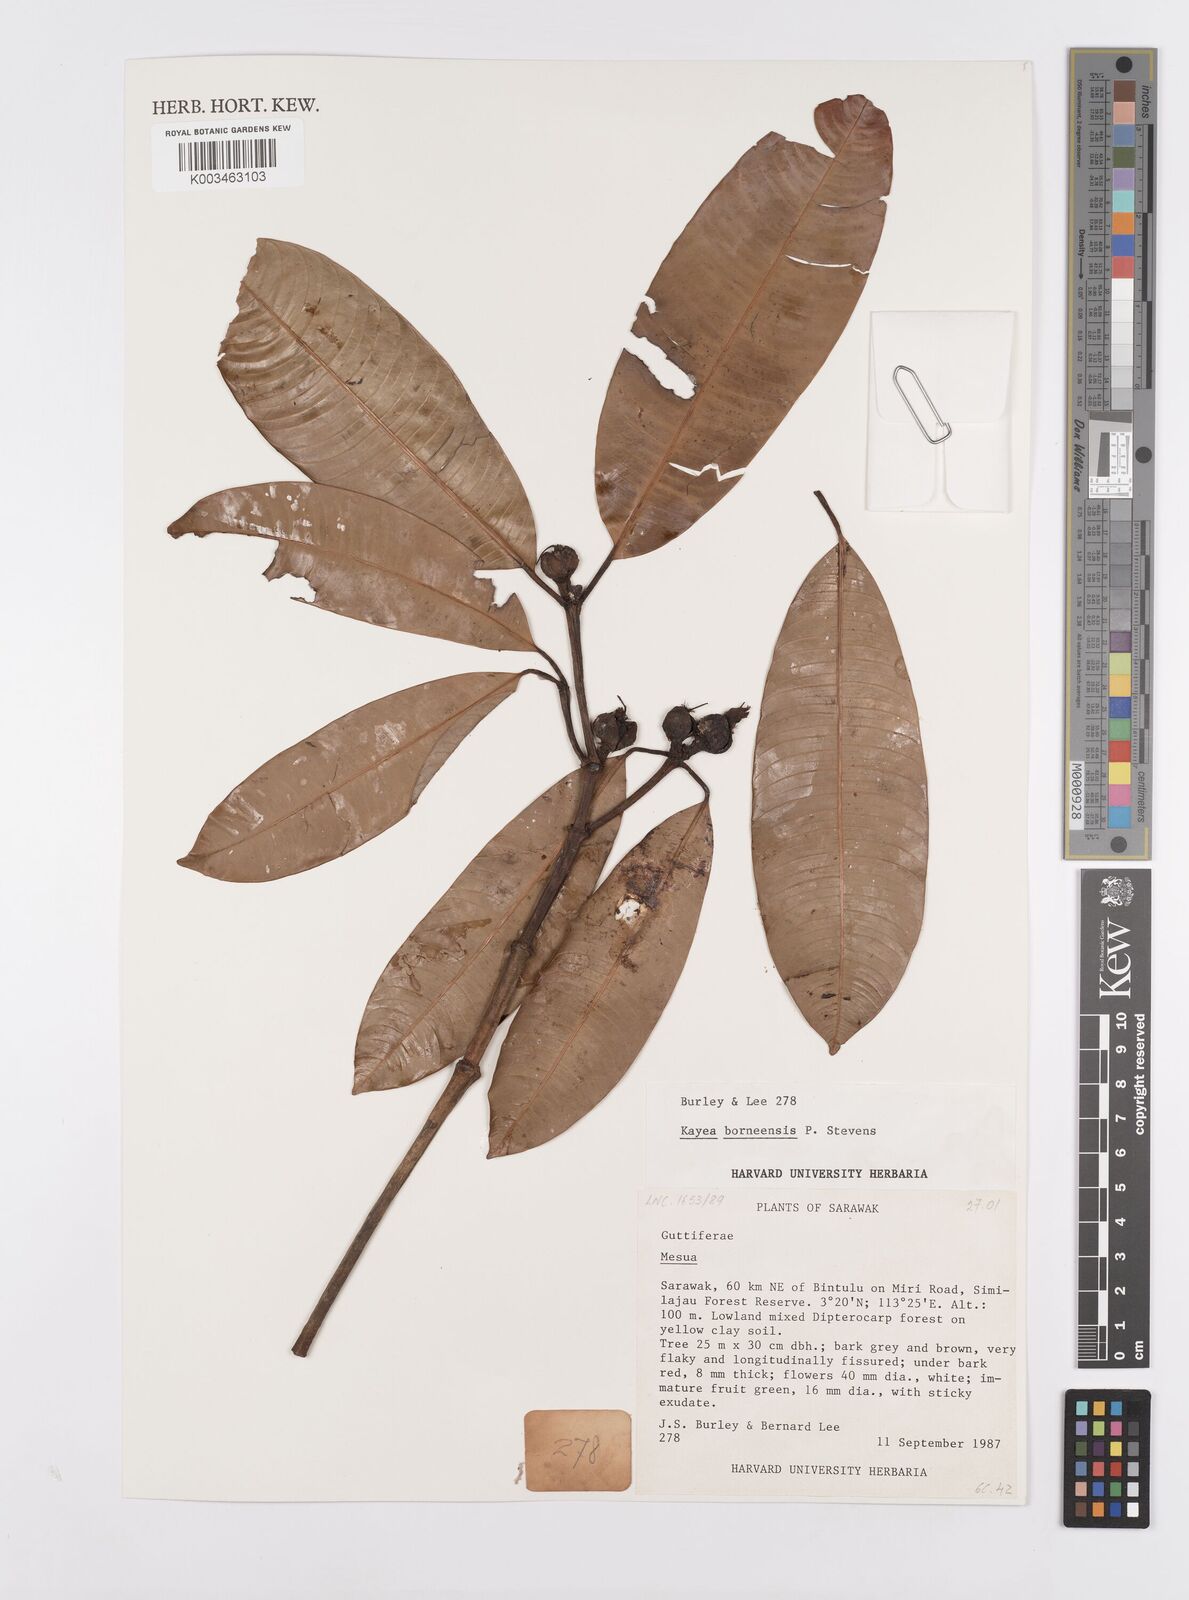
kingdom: Plantae
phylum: Tracheophyta
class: Magnoliopsida
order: Malpighiales
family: Calophyllaceae
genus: Kayea
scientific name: Kayea borneensis
